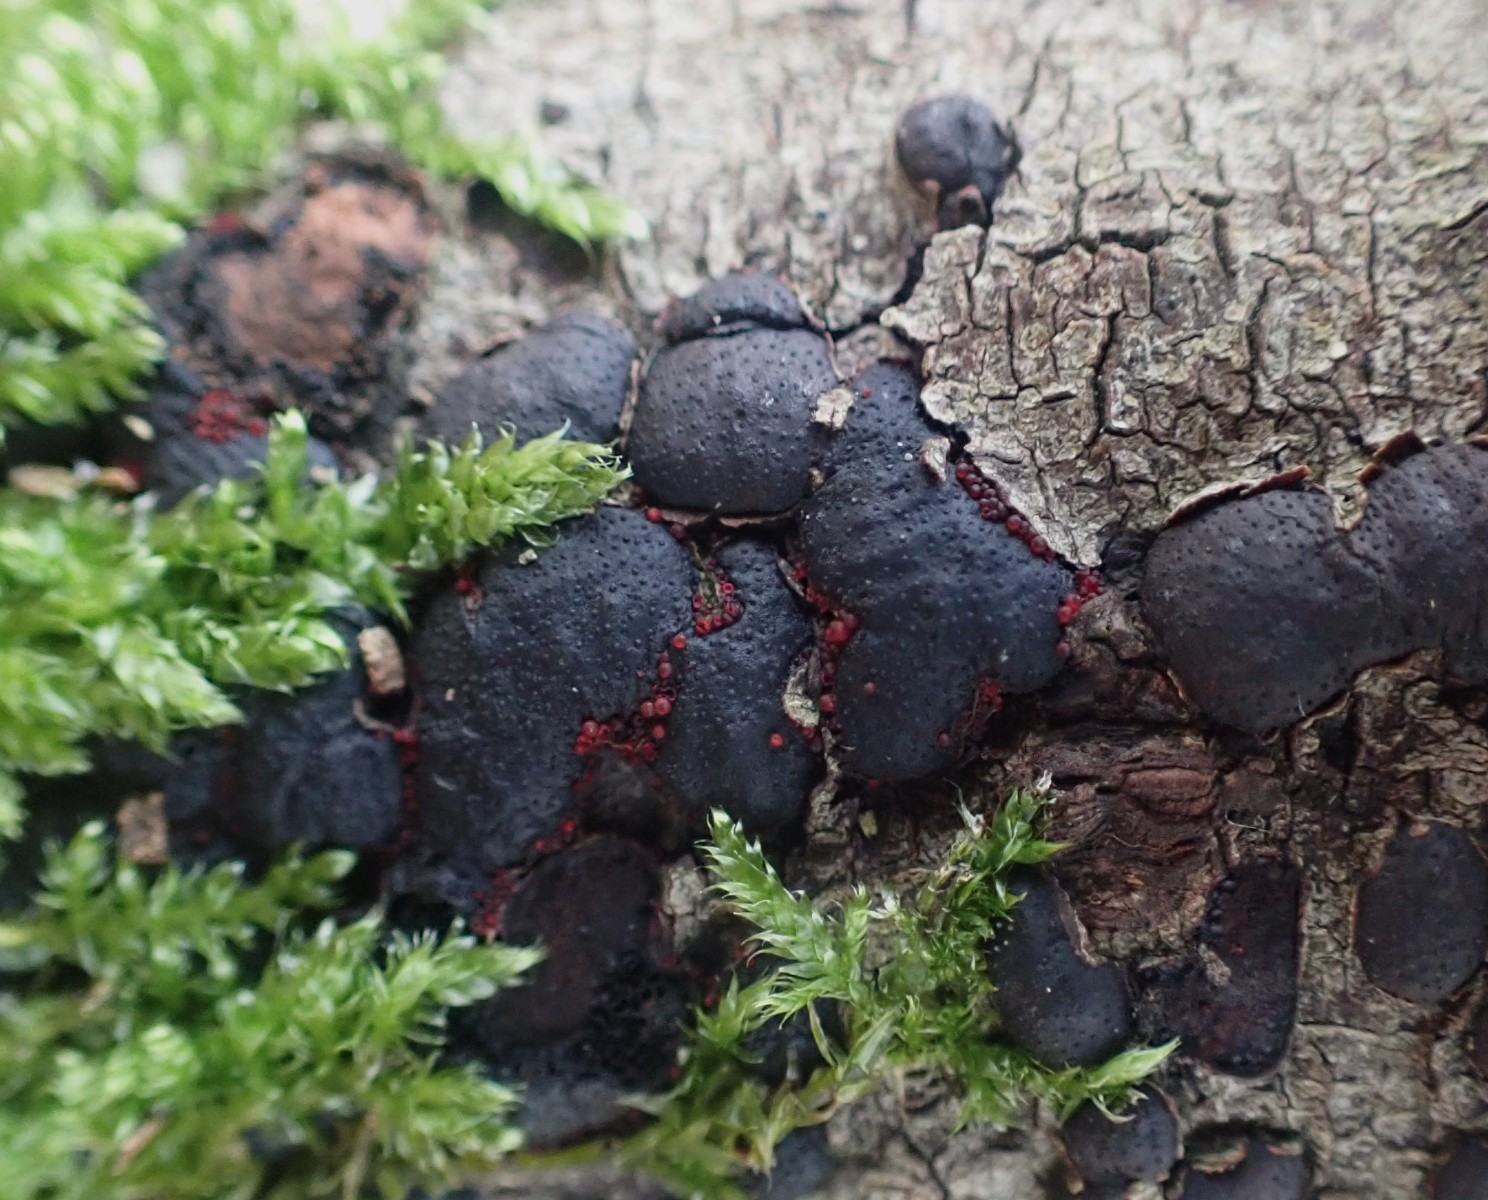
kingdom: Fungi
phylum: Ascomycota
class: Sordariomycetes
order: Hypocreales
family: Nectriaceae
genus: Dialonectria
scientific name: Dialonectria diatrypicola
